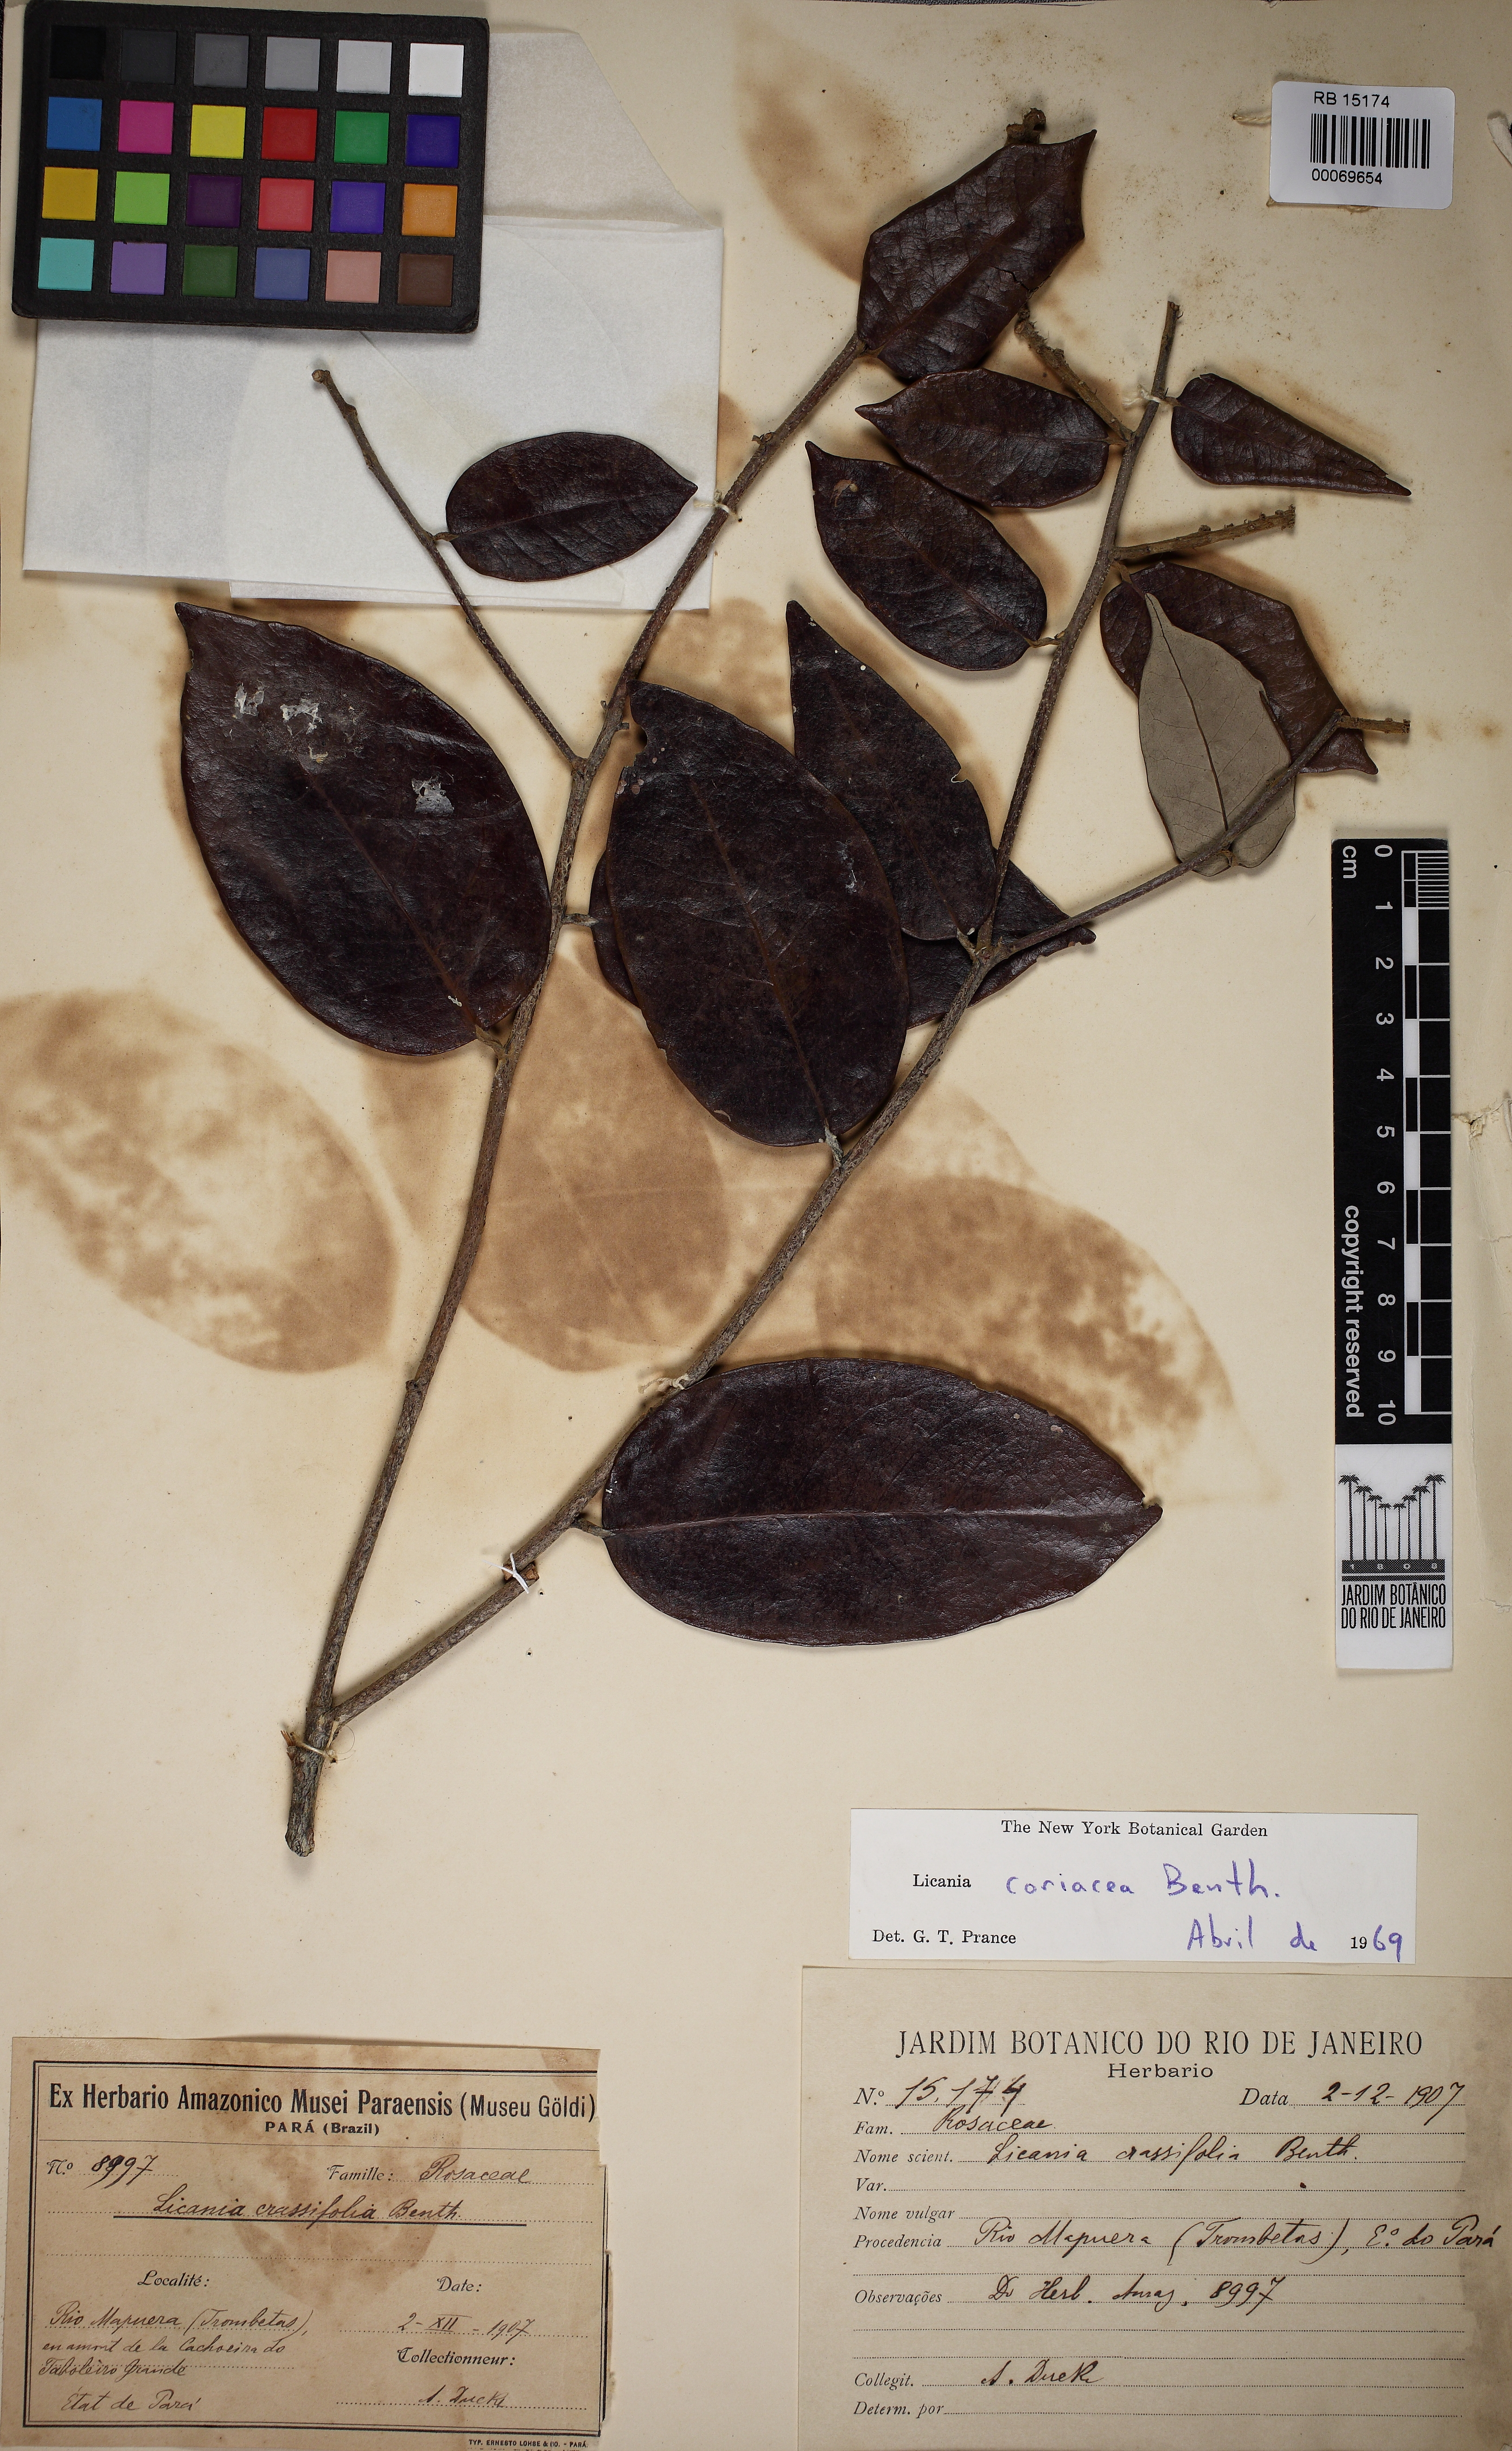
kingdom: Plantae
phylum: Tracheophyta
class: Magnoliopsida
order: Malpighiales
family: Chrysobalanaceae
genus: Licania
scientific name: Licania coriacea
